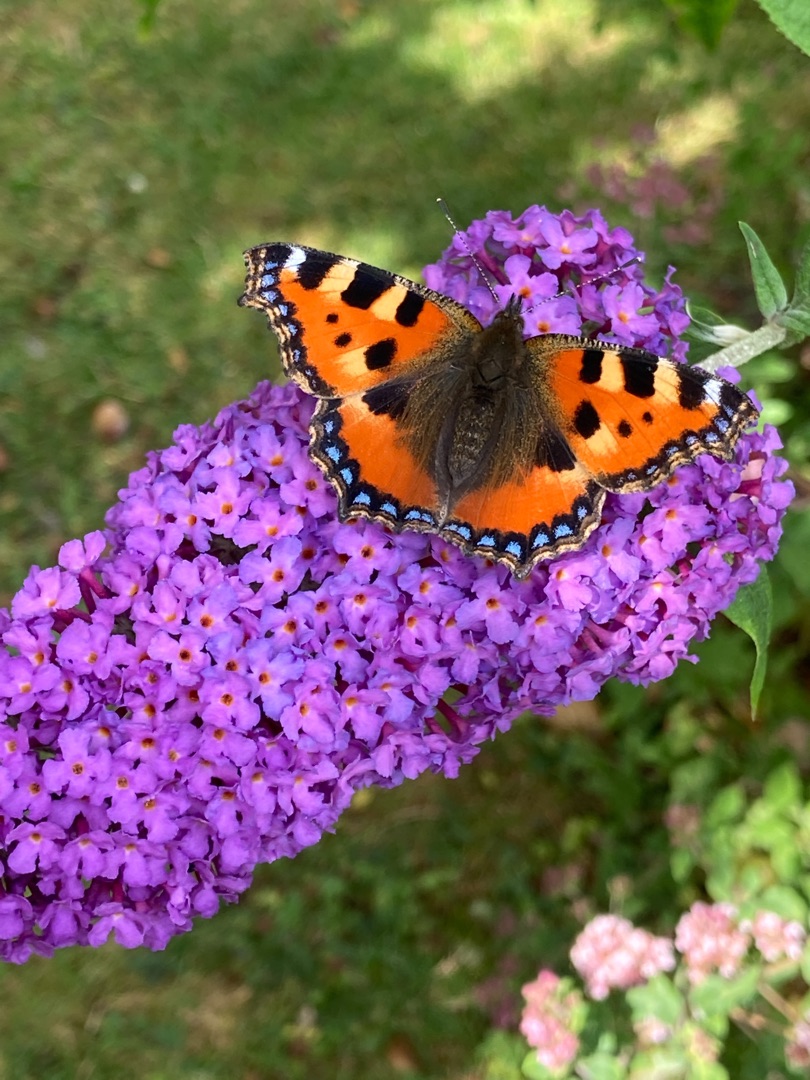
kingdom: Animalia
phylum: Arthropoda
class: Insecta
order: Lepidoptera
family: Nymphalidae
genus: Aglais
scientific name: Aglais urticae
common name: Nældens takvinge
